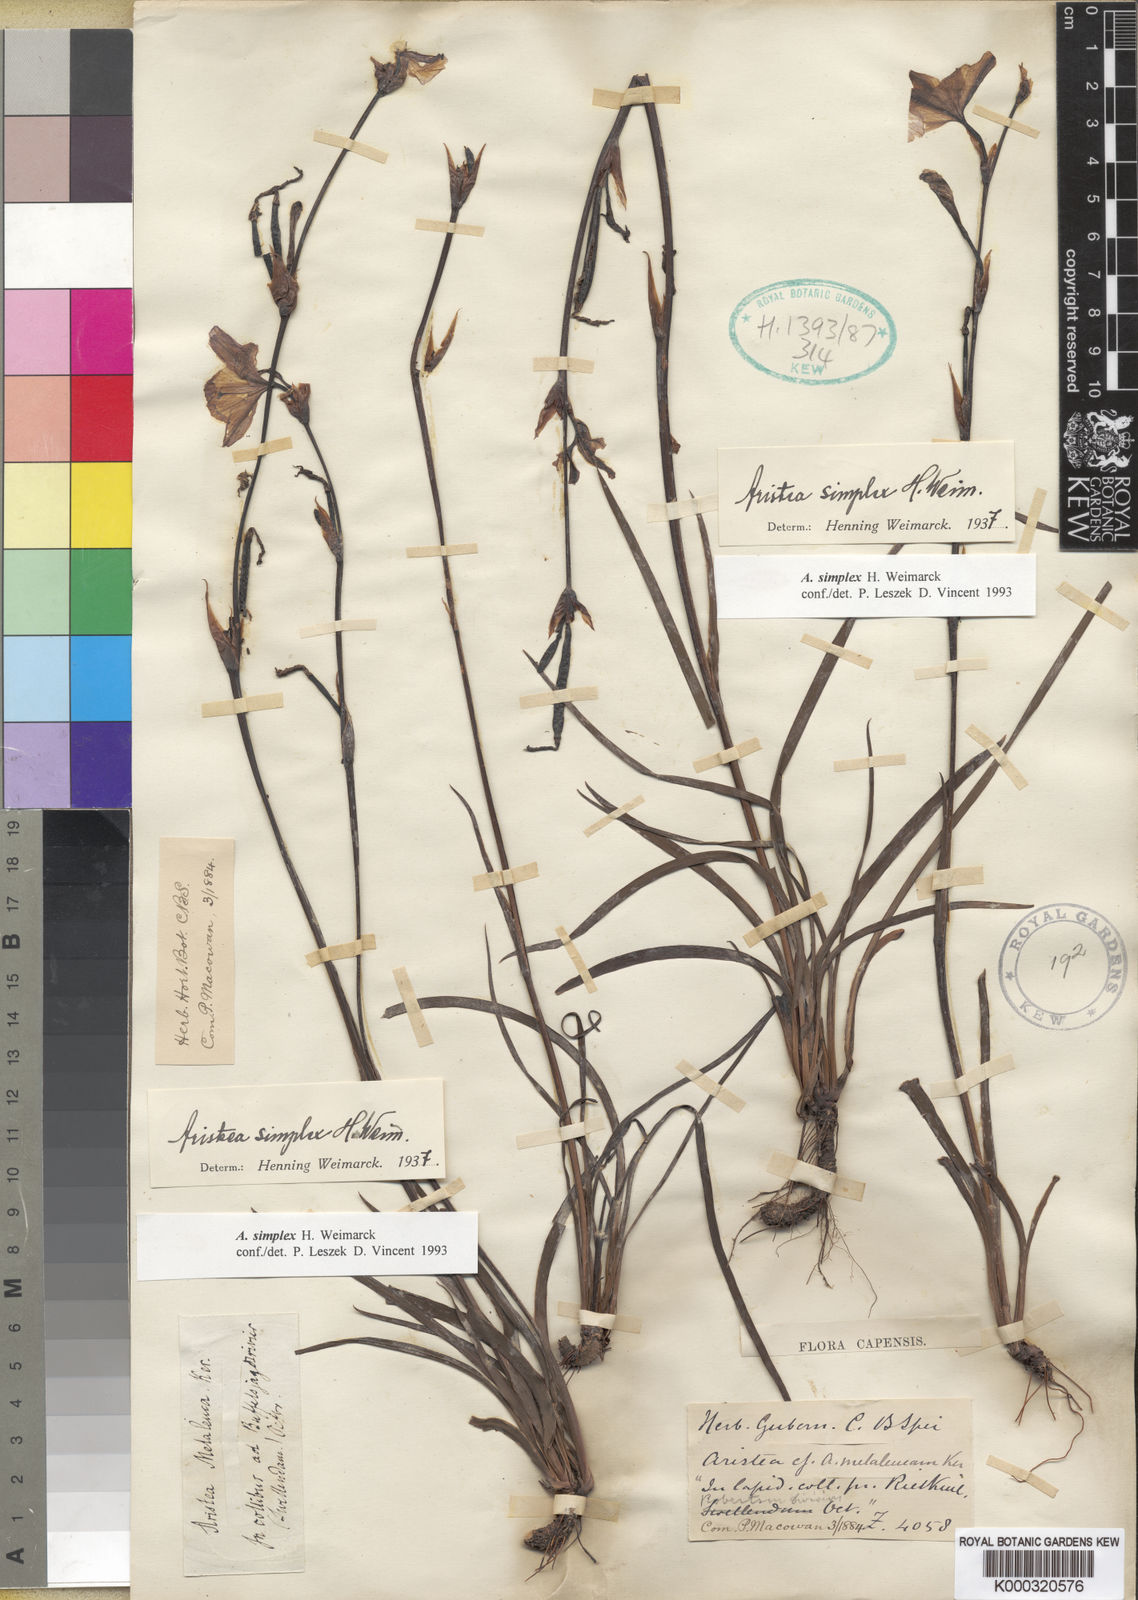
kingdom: Plantae
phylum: Tracheophyta
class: Liliopsida
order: Asparagales
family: Iridaceae
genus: Aristea
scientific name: Aristea simplex
